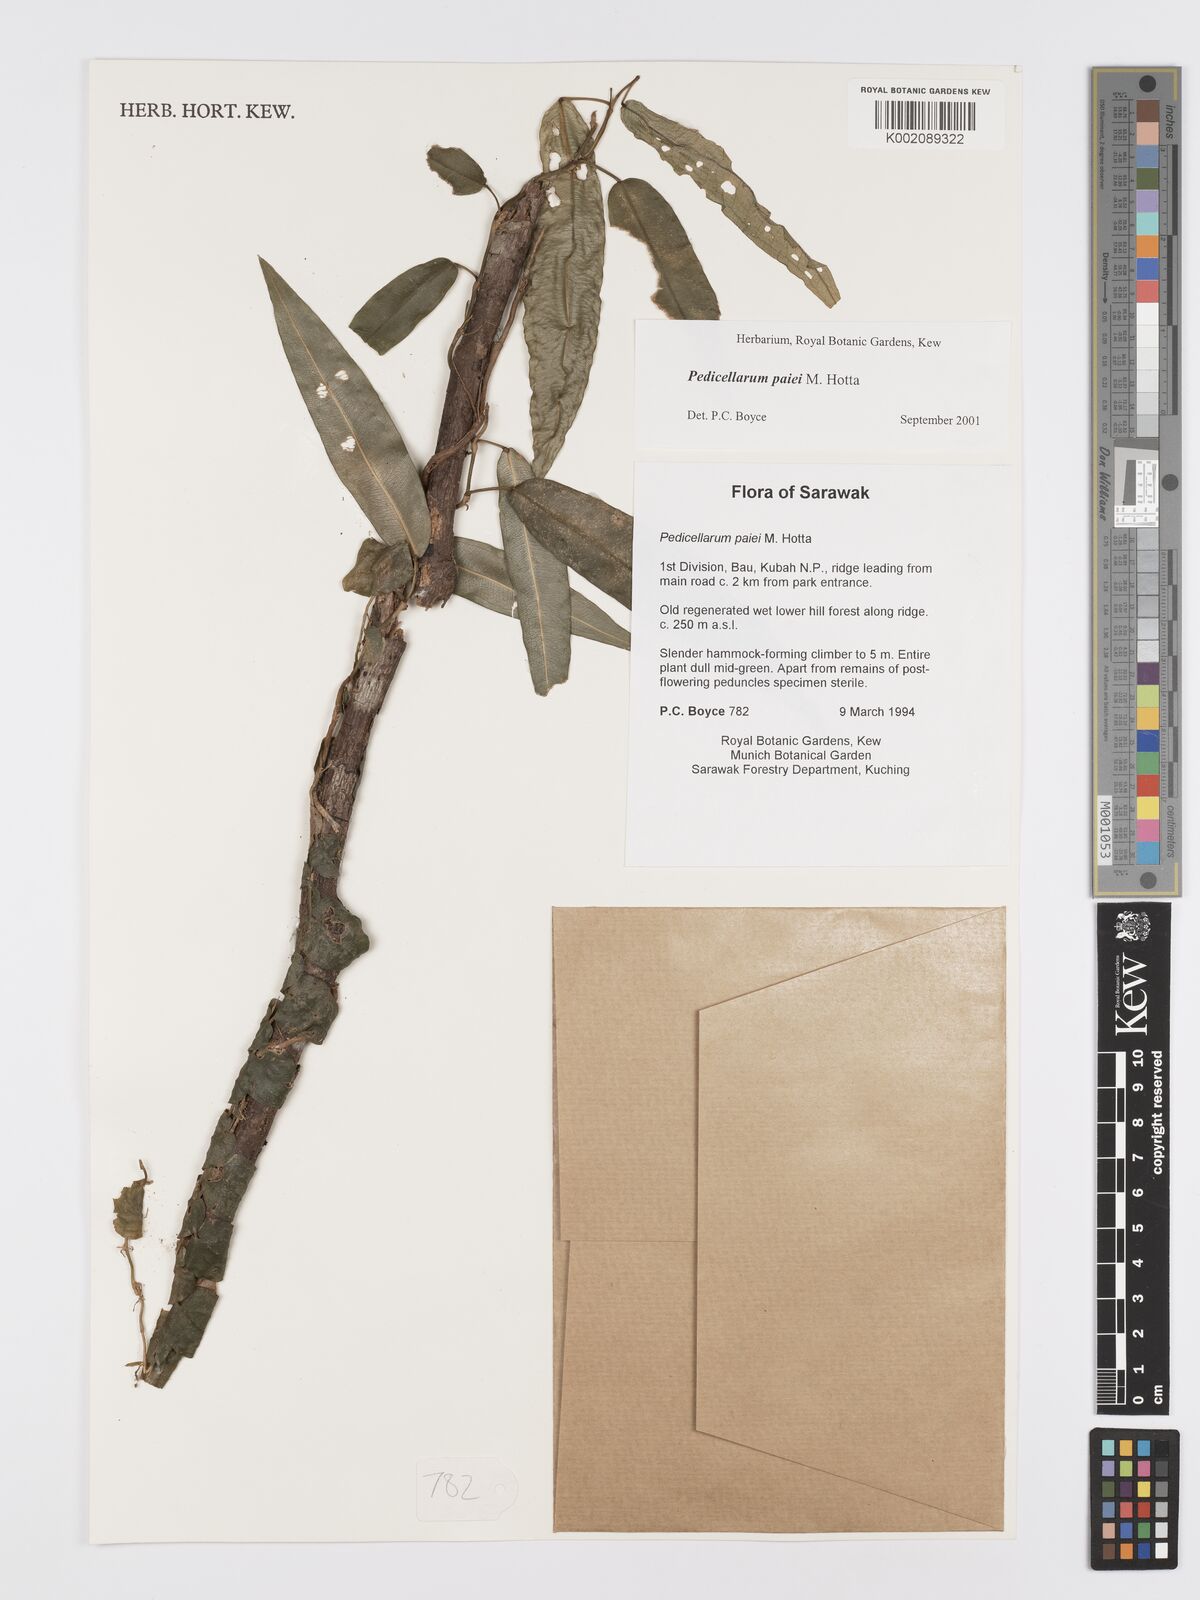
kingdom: Plantae
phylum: Tracheophyta
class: Liliopsida
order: Alismatales
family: Araceae
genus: Pothos
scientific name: Pothos paiei
